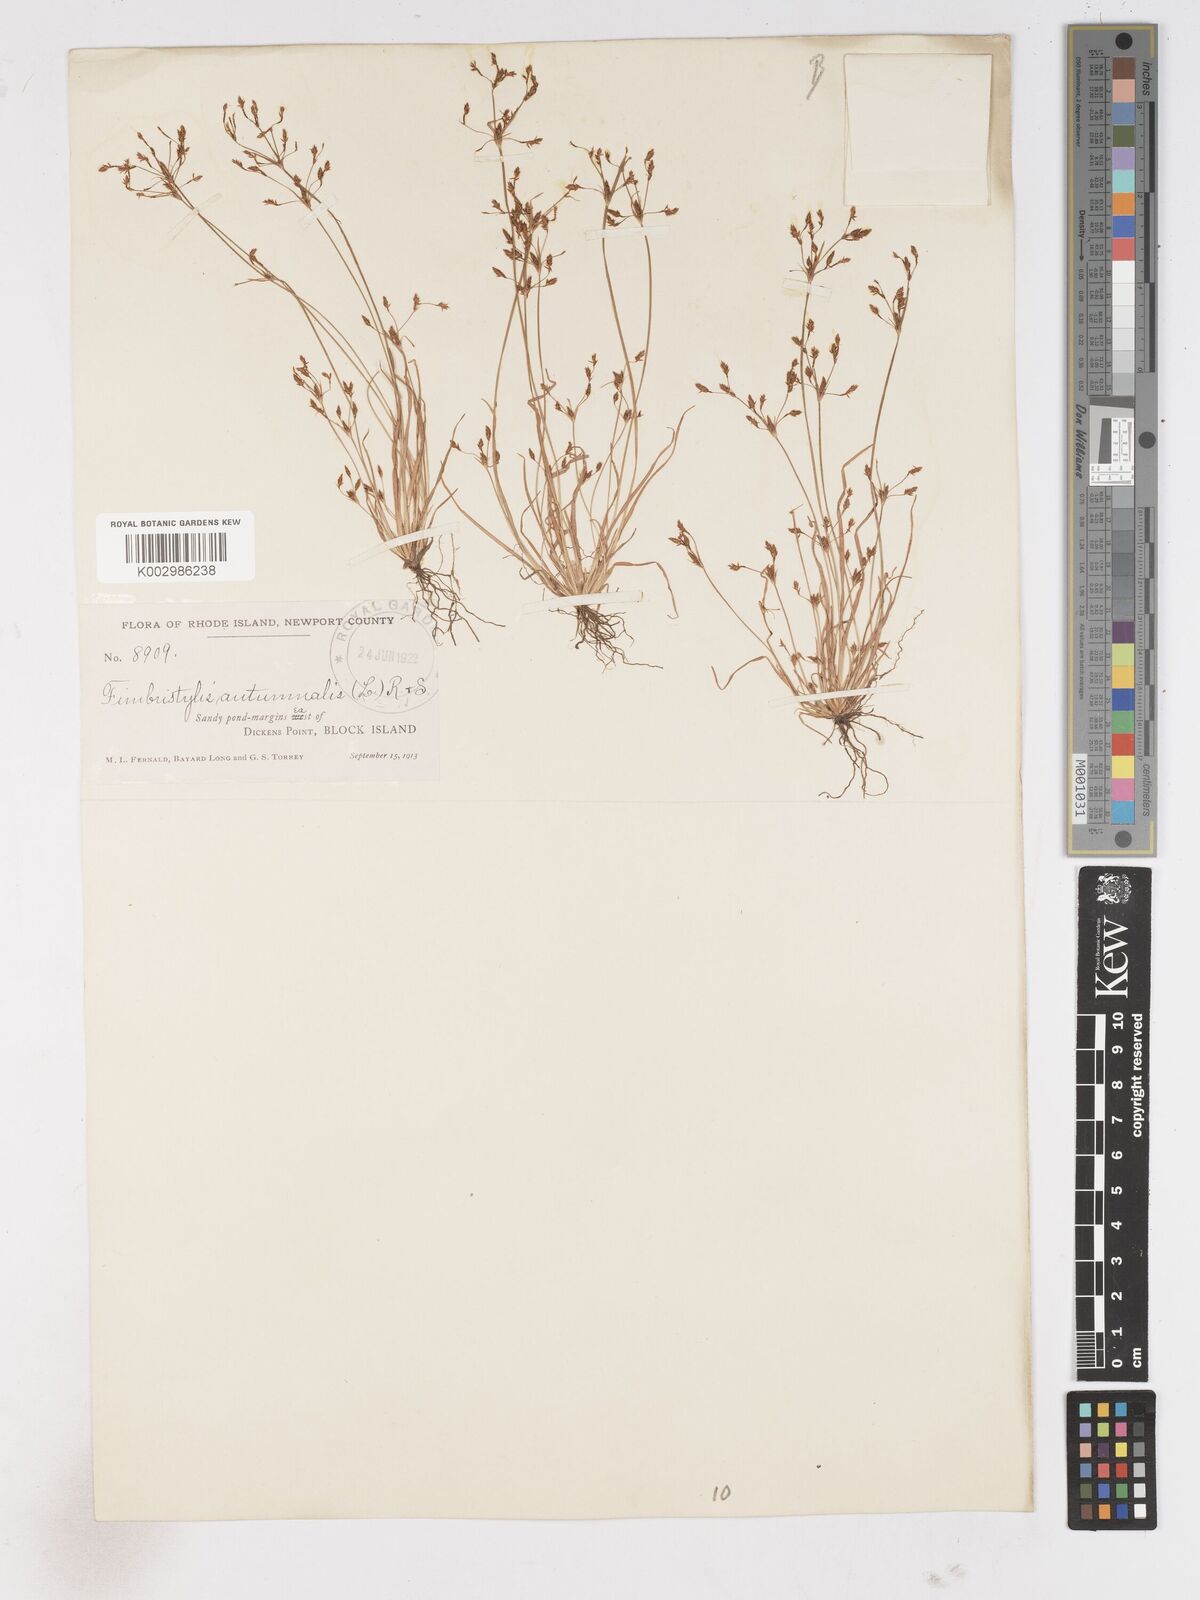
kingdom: Plantae
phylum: Tracheophyta
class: Liliopsida
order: Poales
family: Cyperaceae
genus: Fimbristylis
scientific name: Fimbristylis autumnalis
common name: Slender fimbristylis
